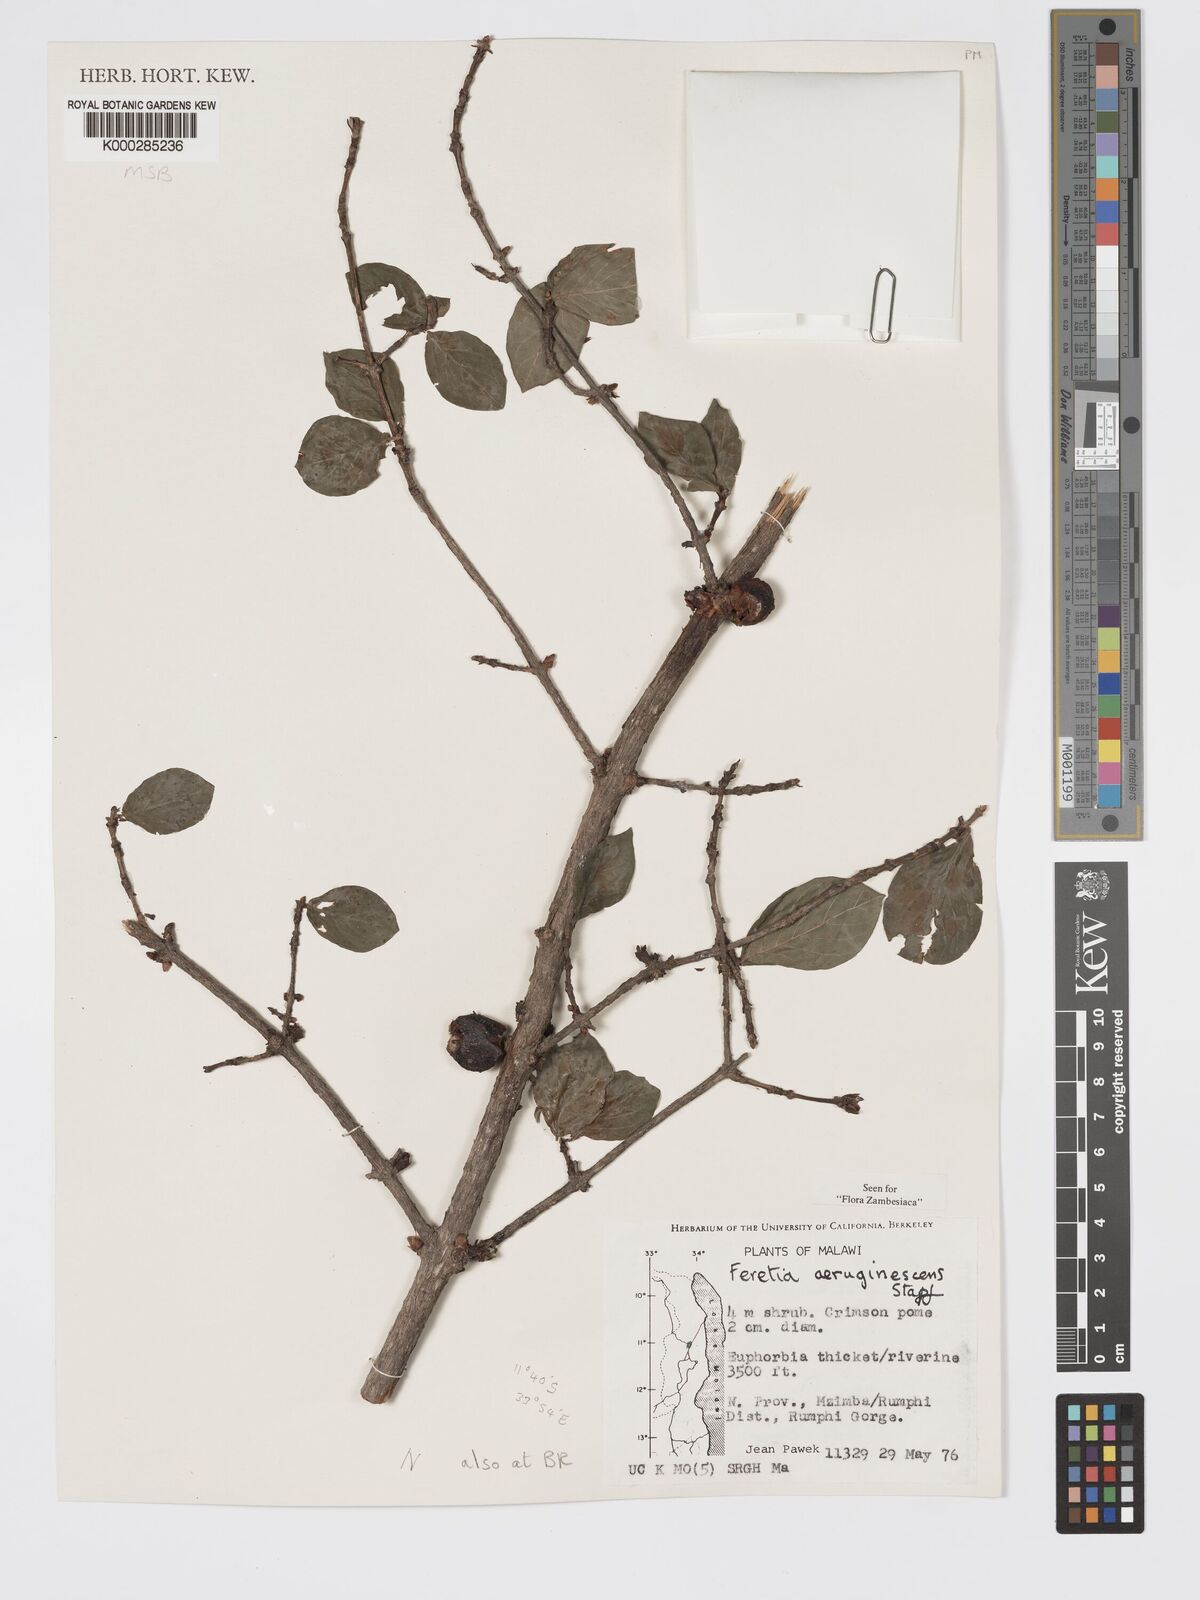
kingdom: Plantae
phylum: Tracheophyta
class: Magnoliopsida
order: Gentianales
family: Rubiaceae
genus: Feretia
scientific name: Feretia aeruginescens
